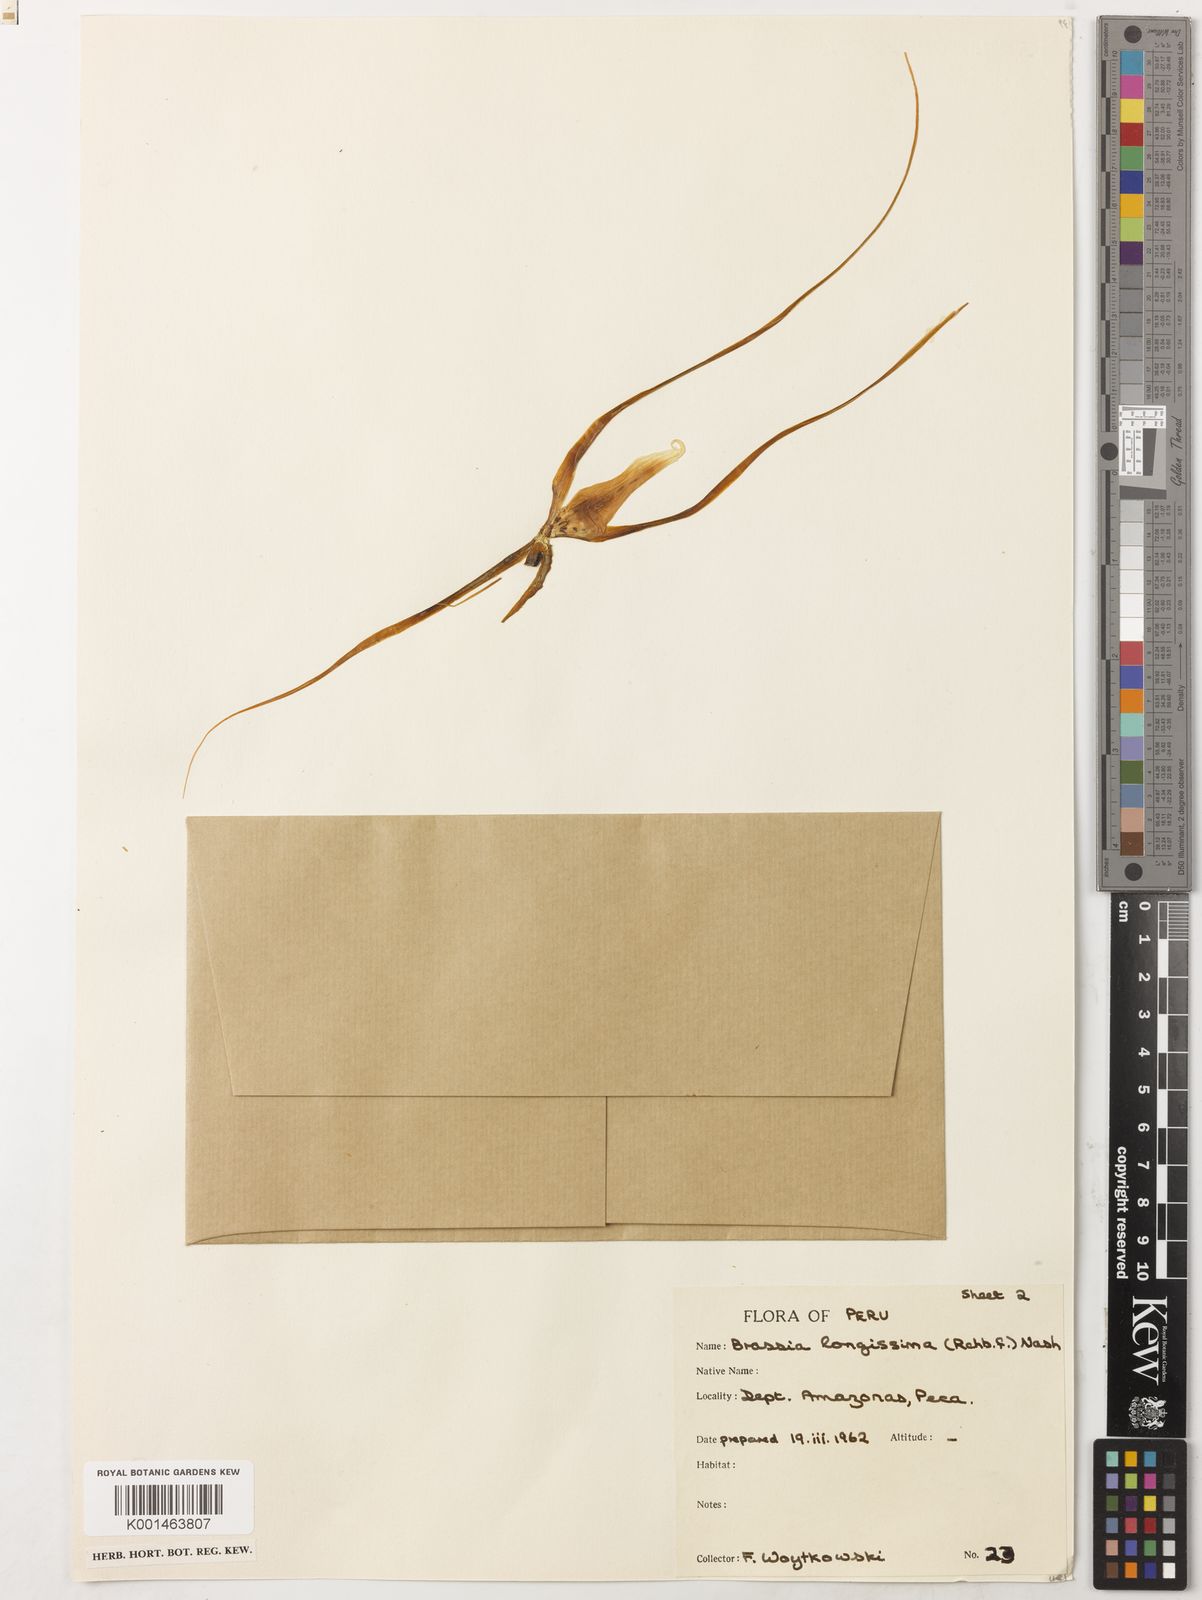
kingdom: Plantae
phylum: Tracheophyta
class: Liliopsida
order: Asparagales
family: Orchidaceae
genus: Brassia
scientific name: Brassia arcuigera
